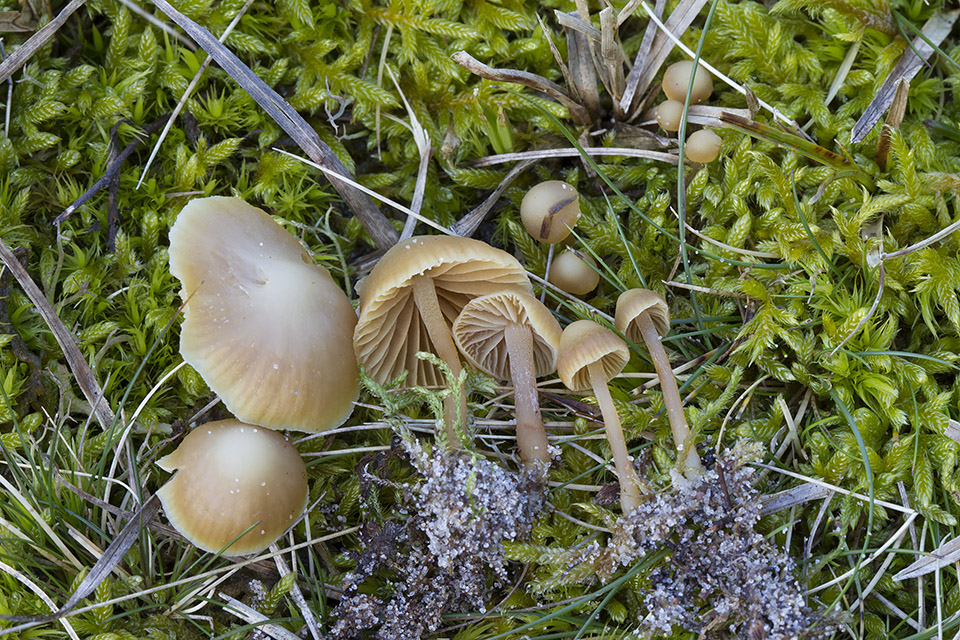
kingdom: Fungi
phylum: Basidiomycota
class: Agaricomycetes
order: Agaricales
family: Hymenogastraceae
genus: Galerina
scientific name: Galerina mniophila
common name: olivengul hjelmhat
